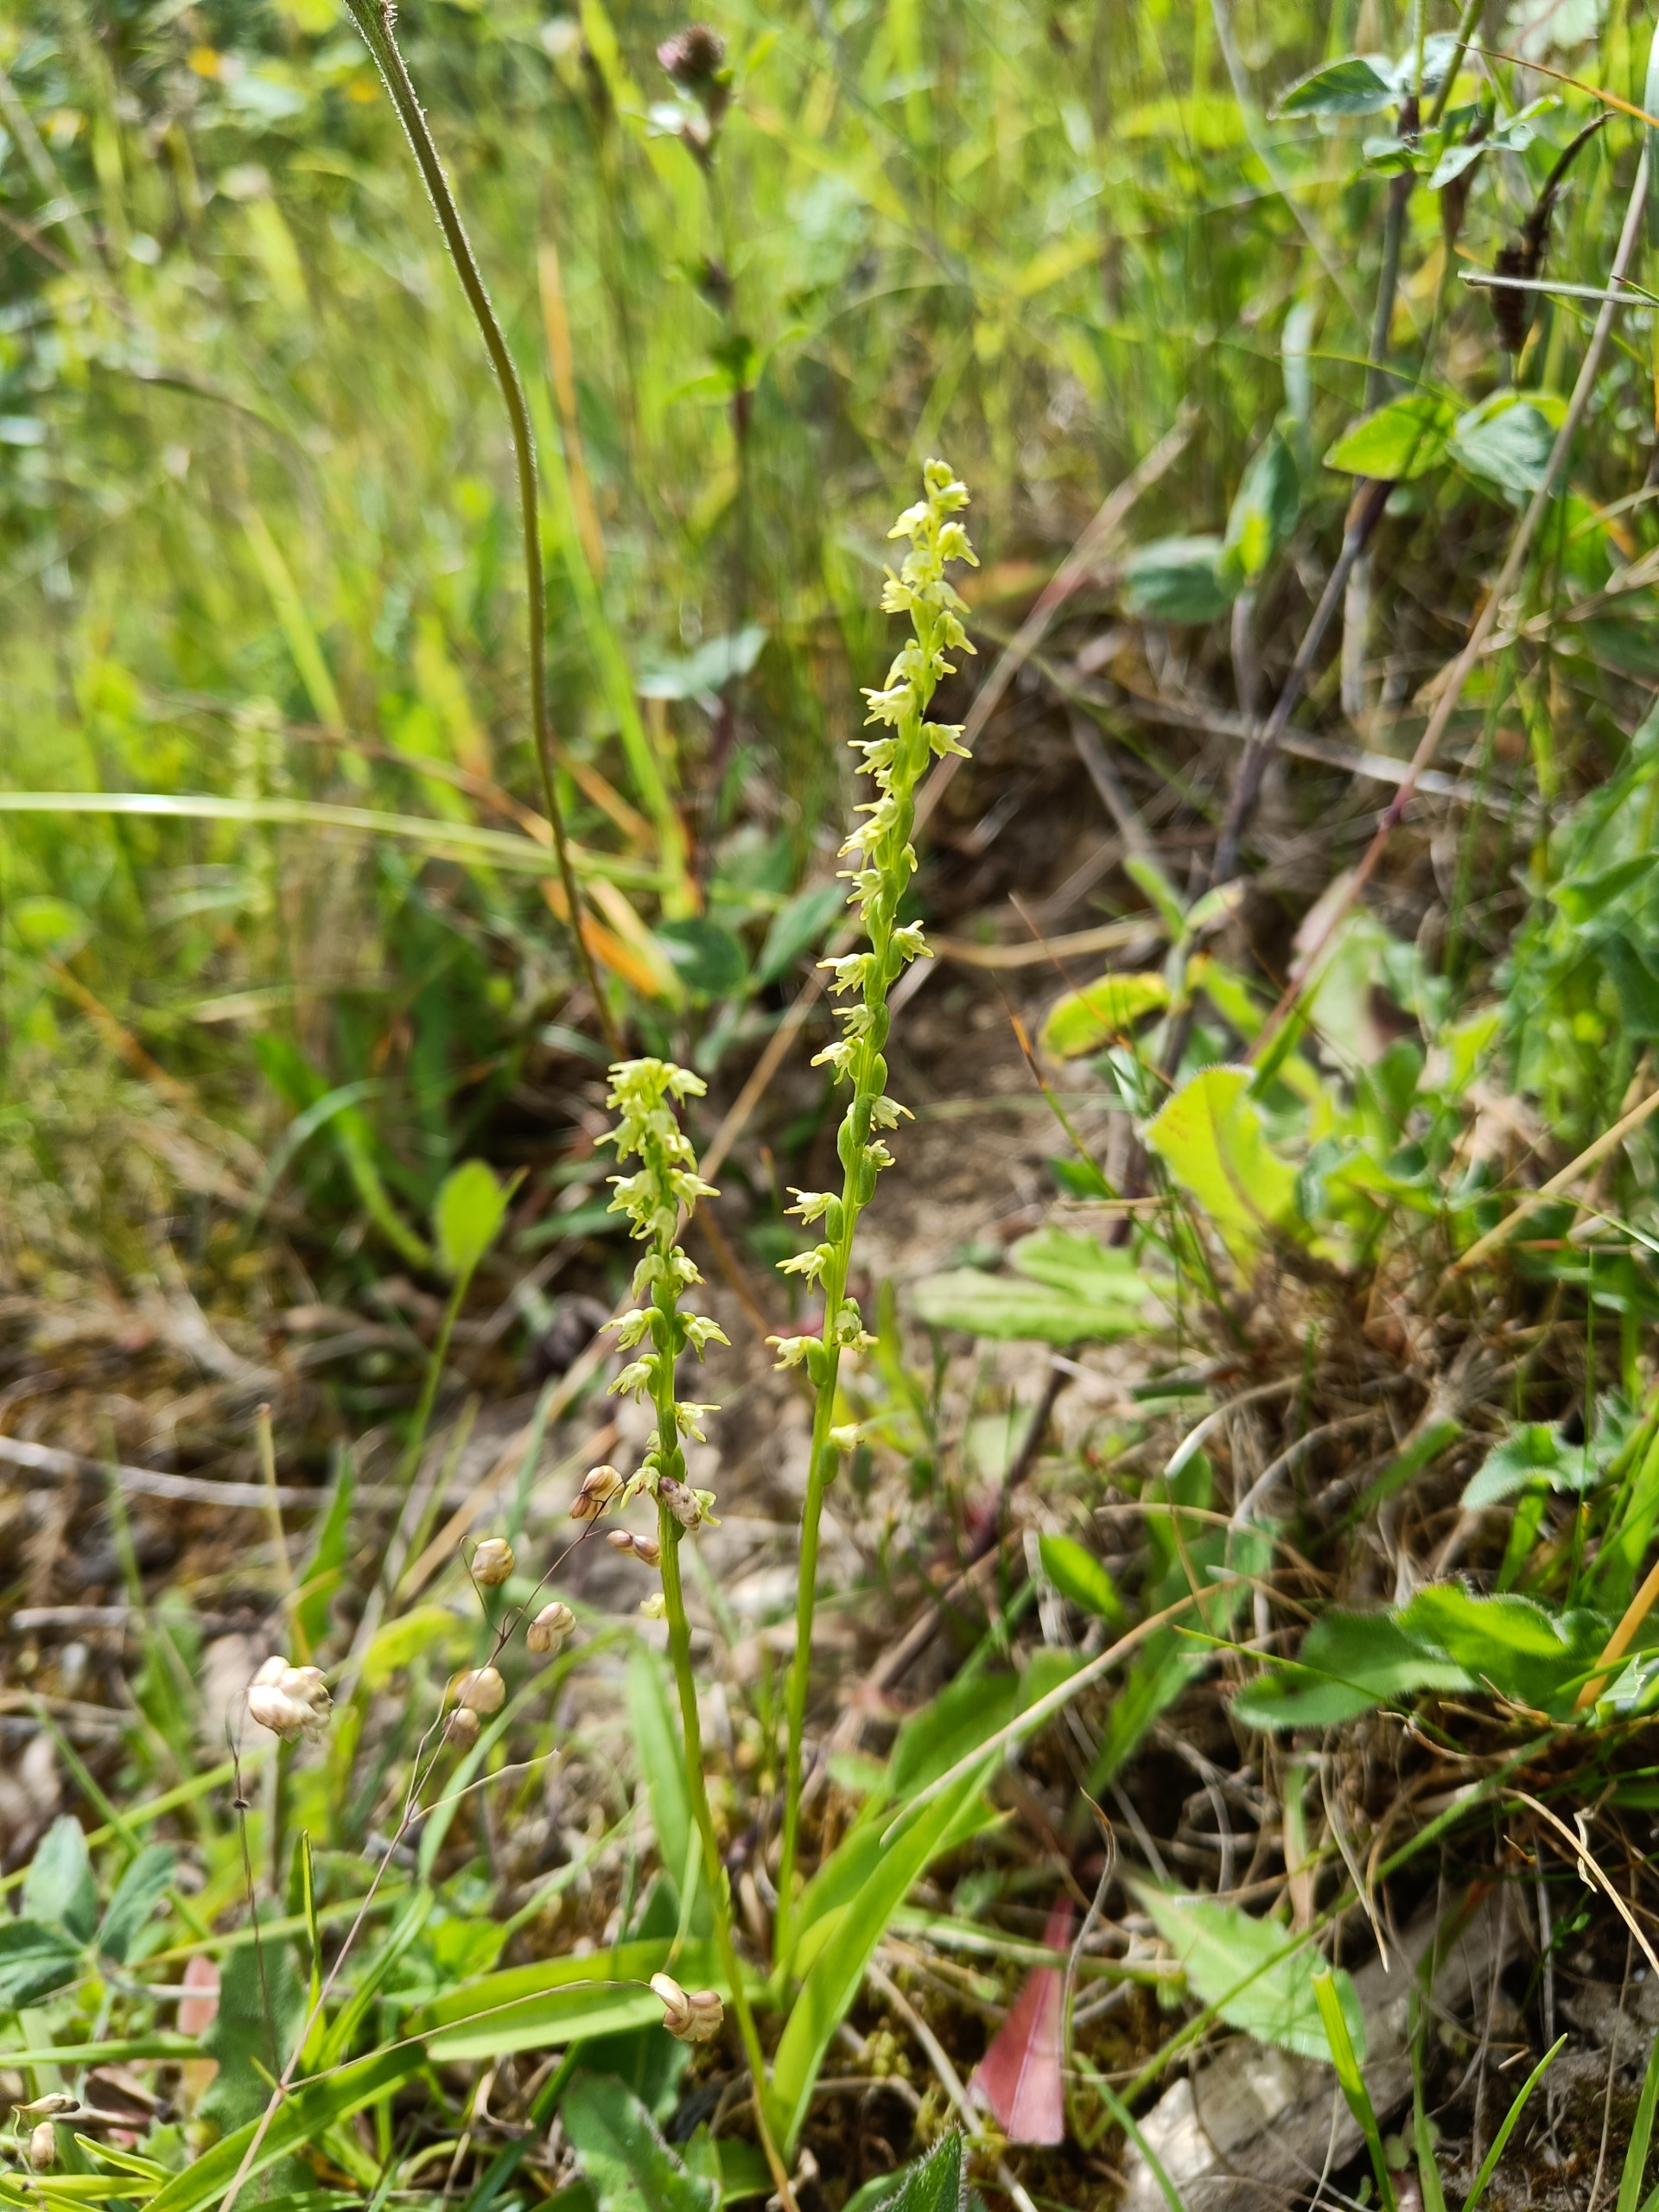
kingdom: Plantae
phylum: Tracheophyta
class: Liliopsida
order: Asparagales
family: Orchidaceae
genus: Herminium
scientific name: Herminium monorchis
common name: Pukkellæbe
